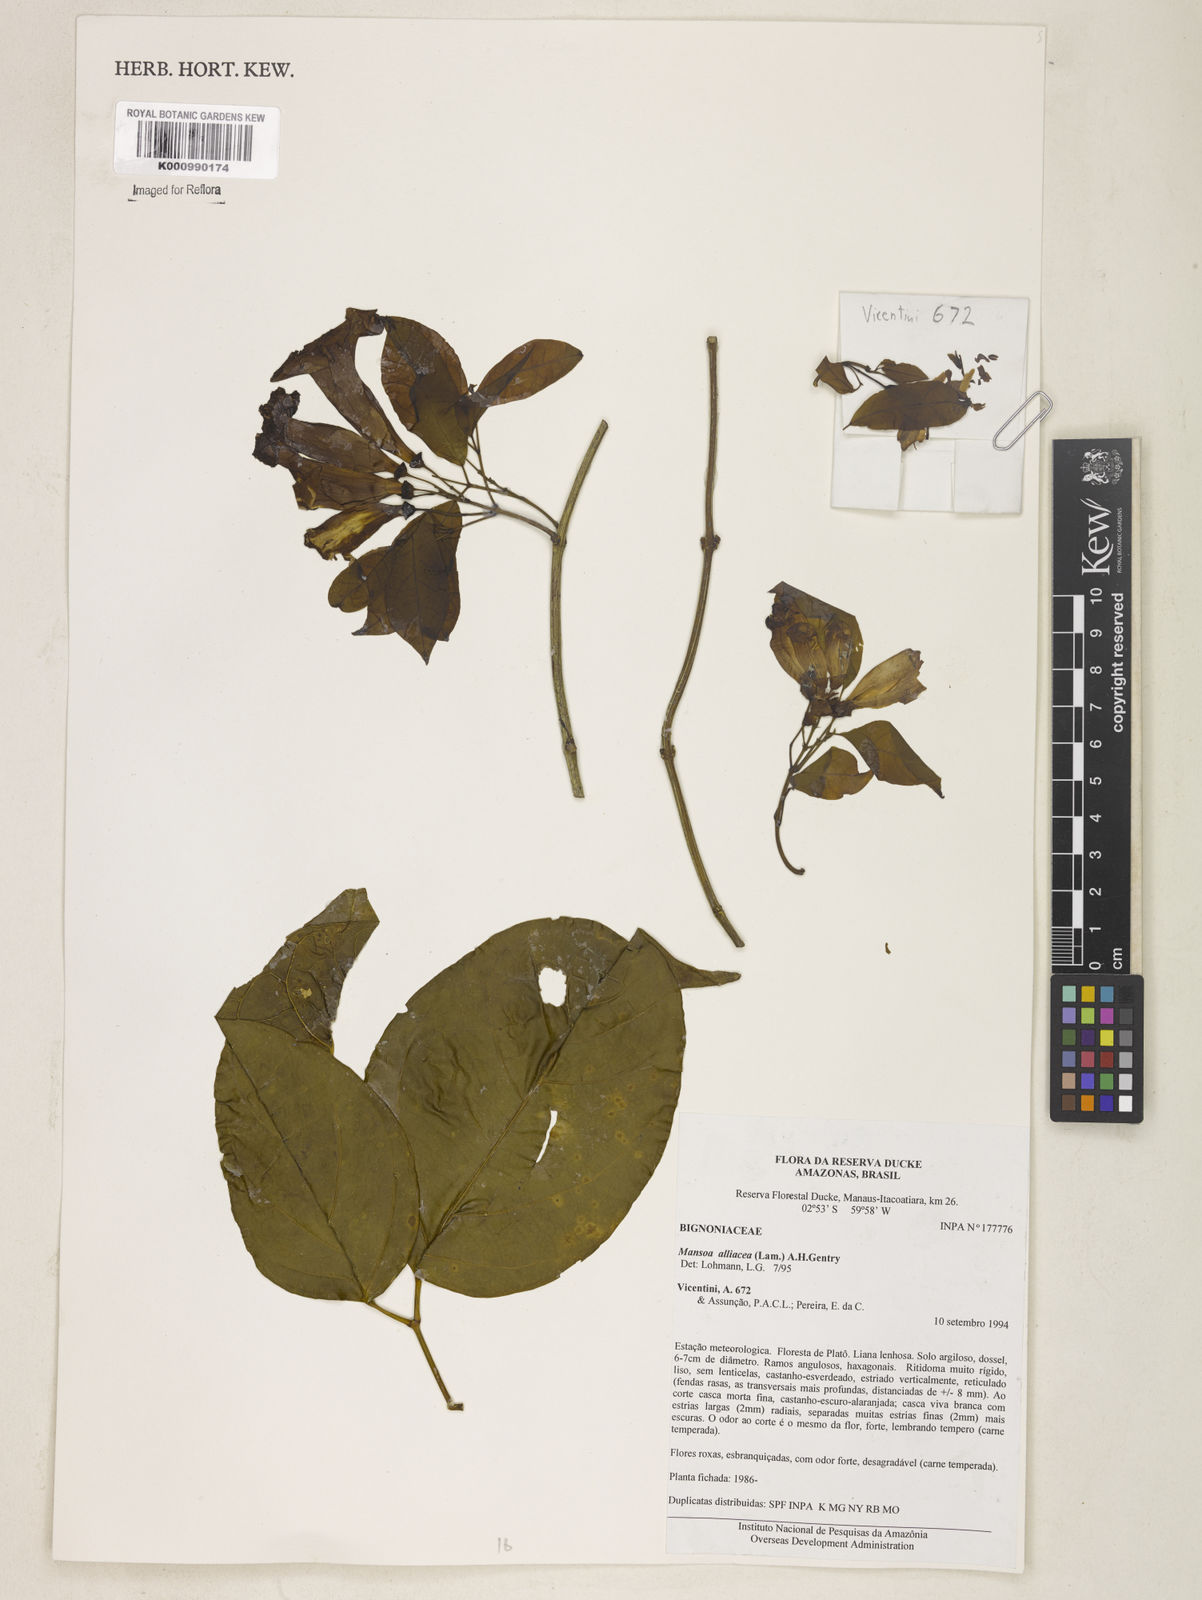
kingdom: Plantae
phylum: Tracheophyta
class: Magnoliopsida
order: Lamiales
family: Bignoniaceae
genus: Mansoa
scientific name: Mansoa alliacea
